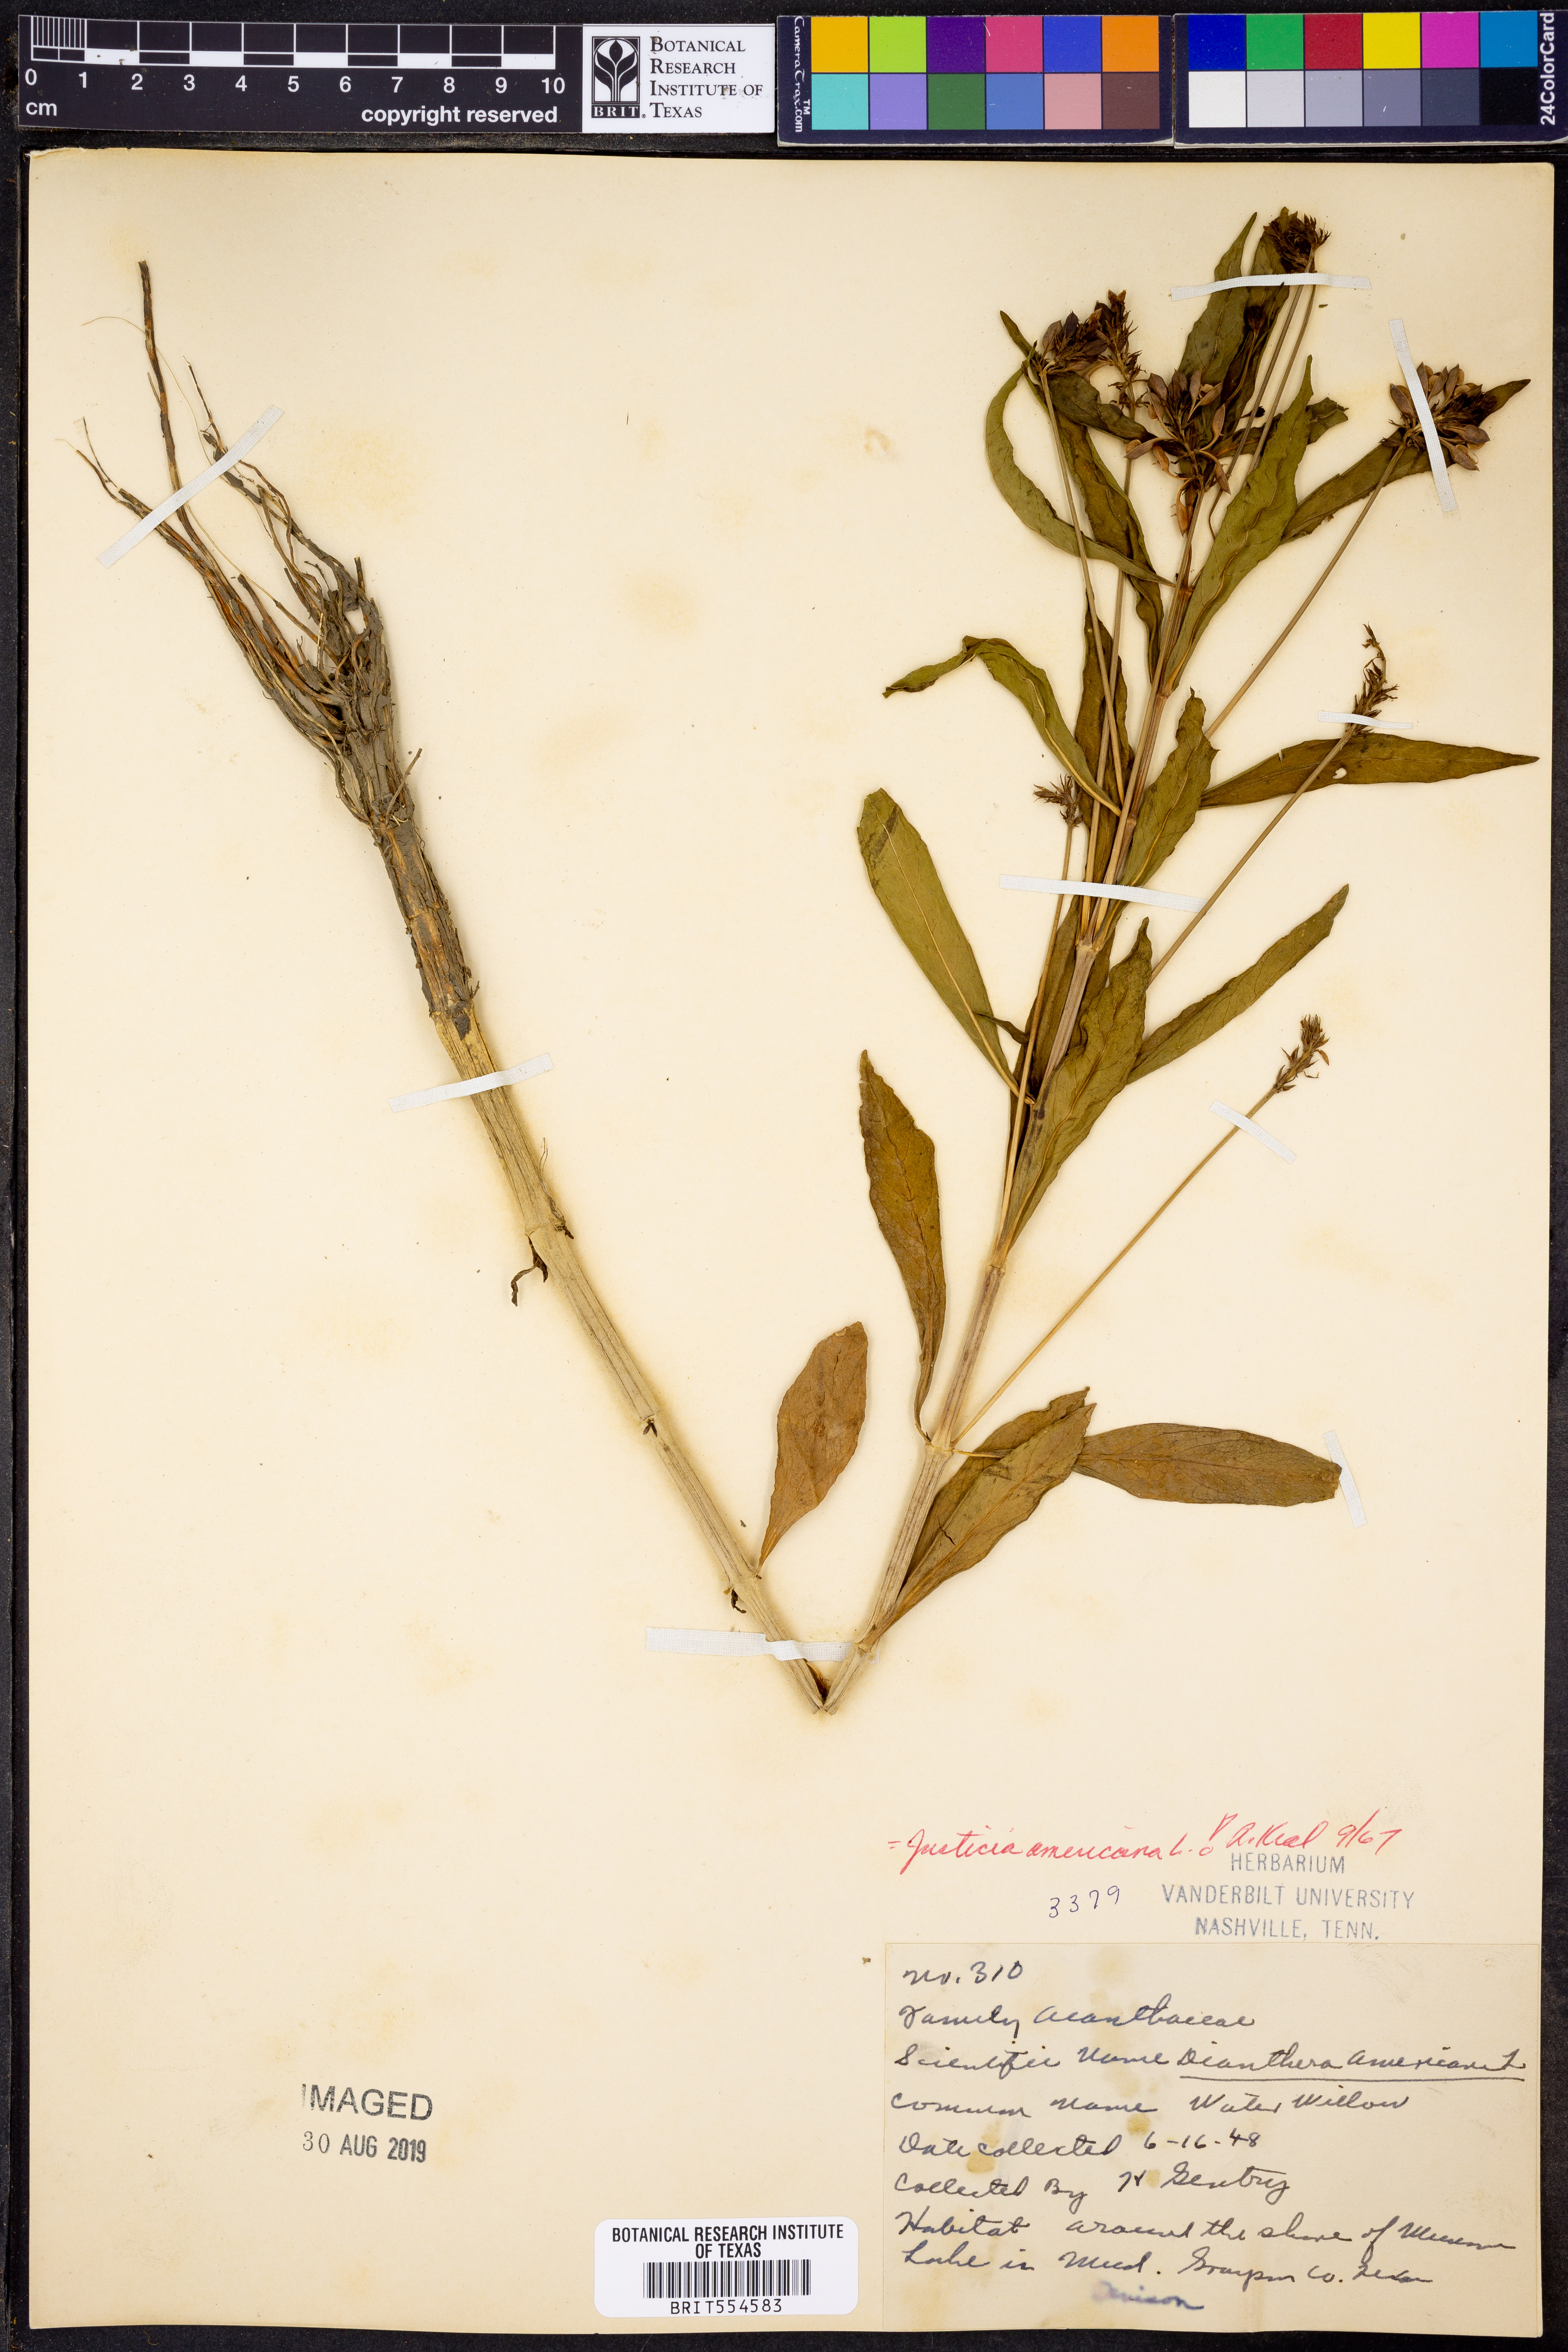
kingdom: Plantae
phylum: Tracheophyta
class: Magnoliopsida
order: Lamiales
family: Acanthaceae
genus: Dianthera
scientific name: Dianthera americana
